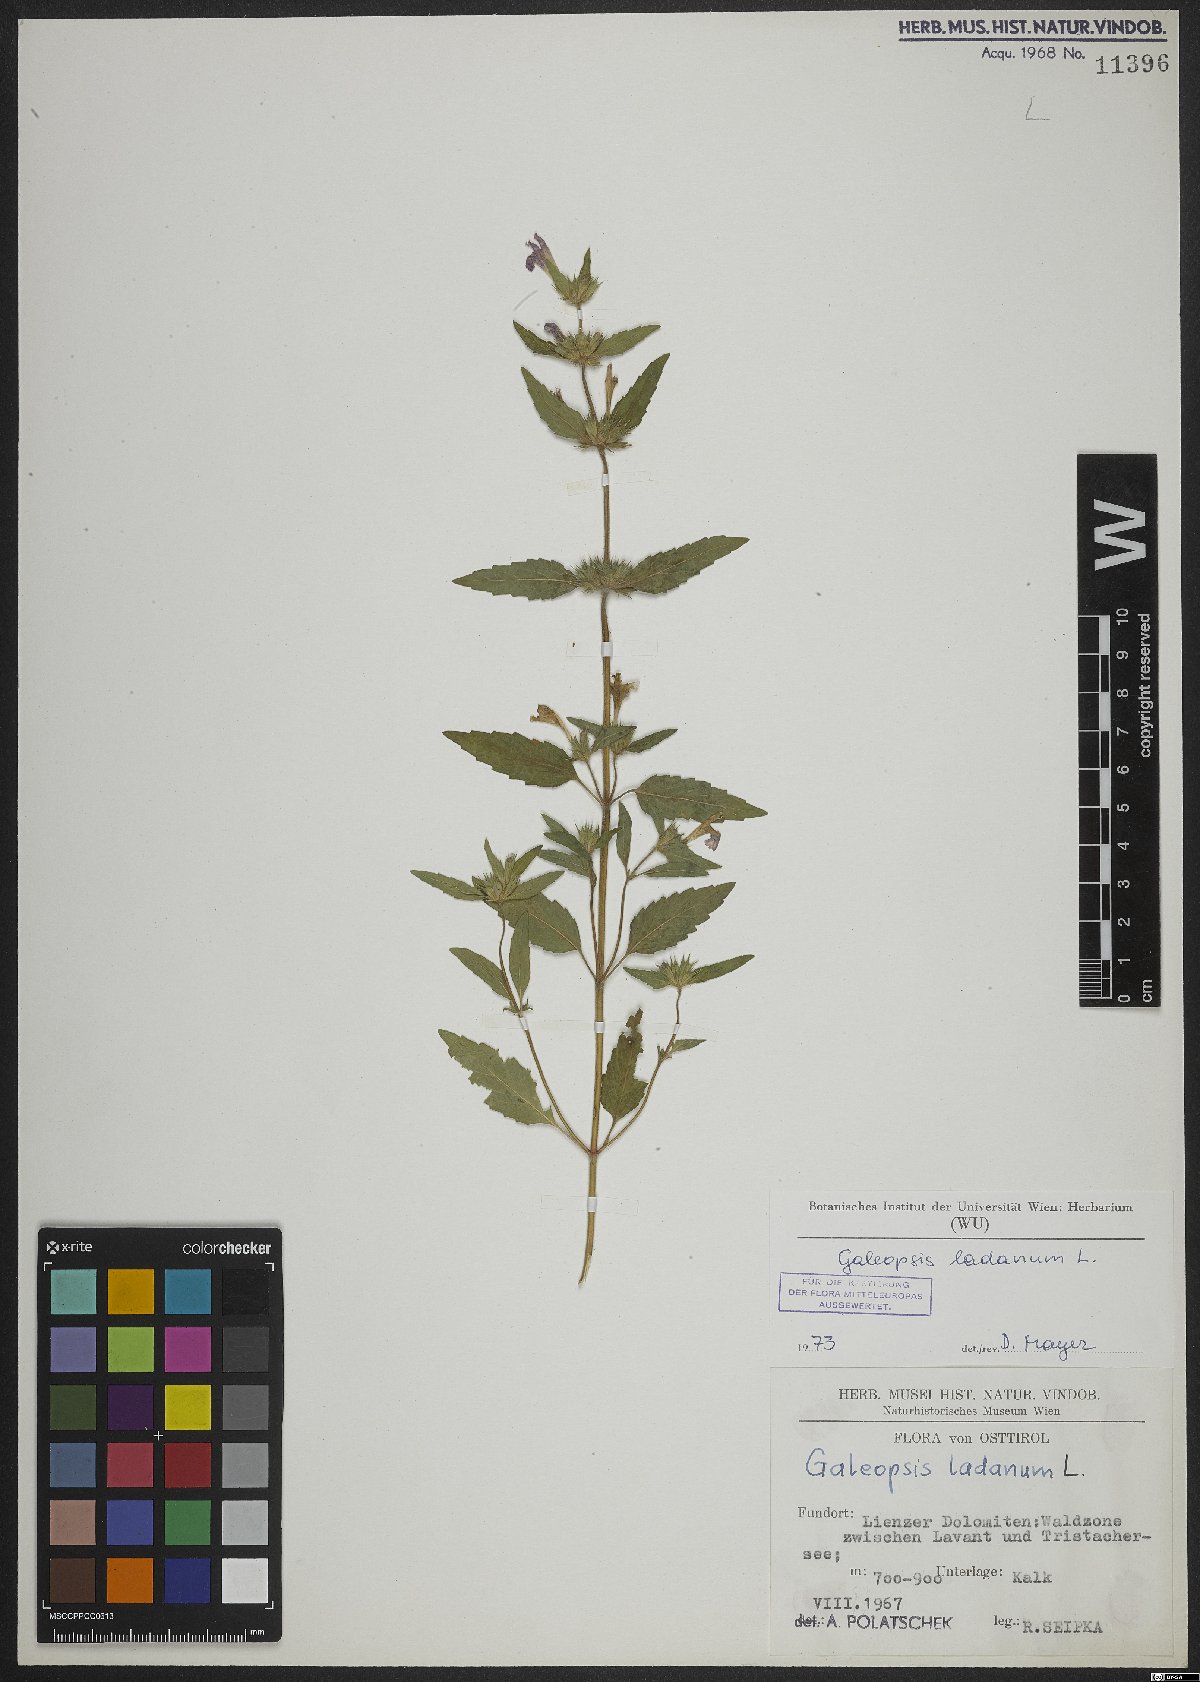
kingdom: Plantae
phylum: Tracheophyta
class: Magnoliopsida
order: Lamiales
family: Lamiaceae
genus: Galeopsis
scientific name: Galeopsis ladanum
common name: Broad-leaved hemp-nettle
